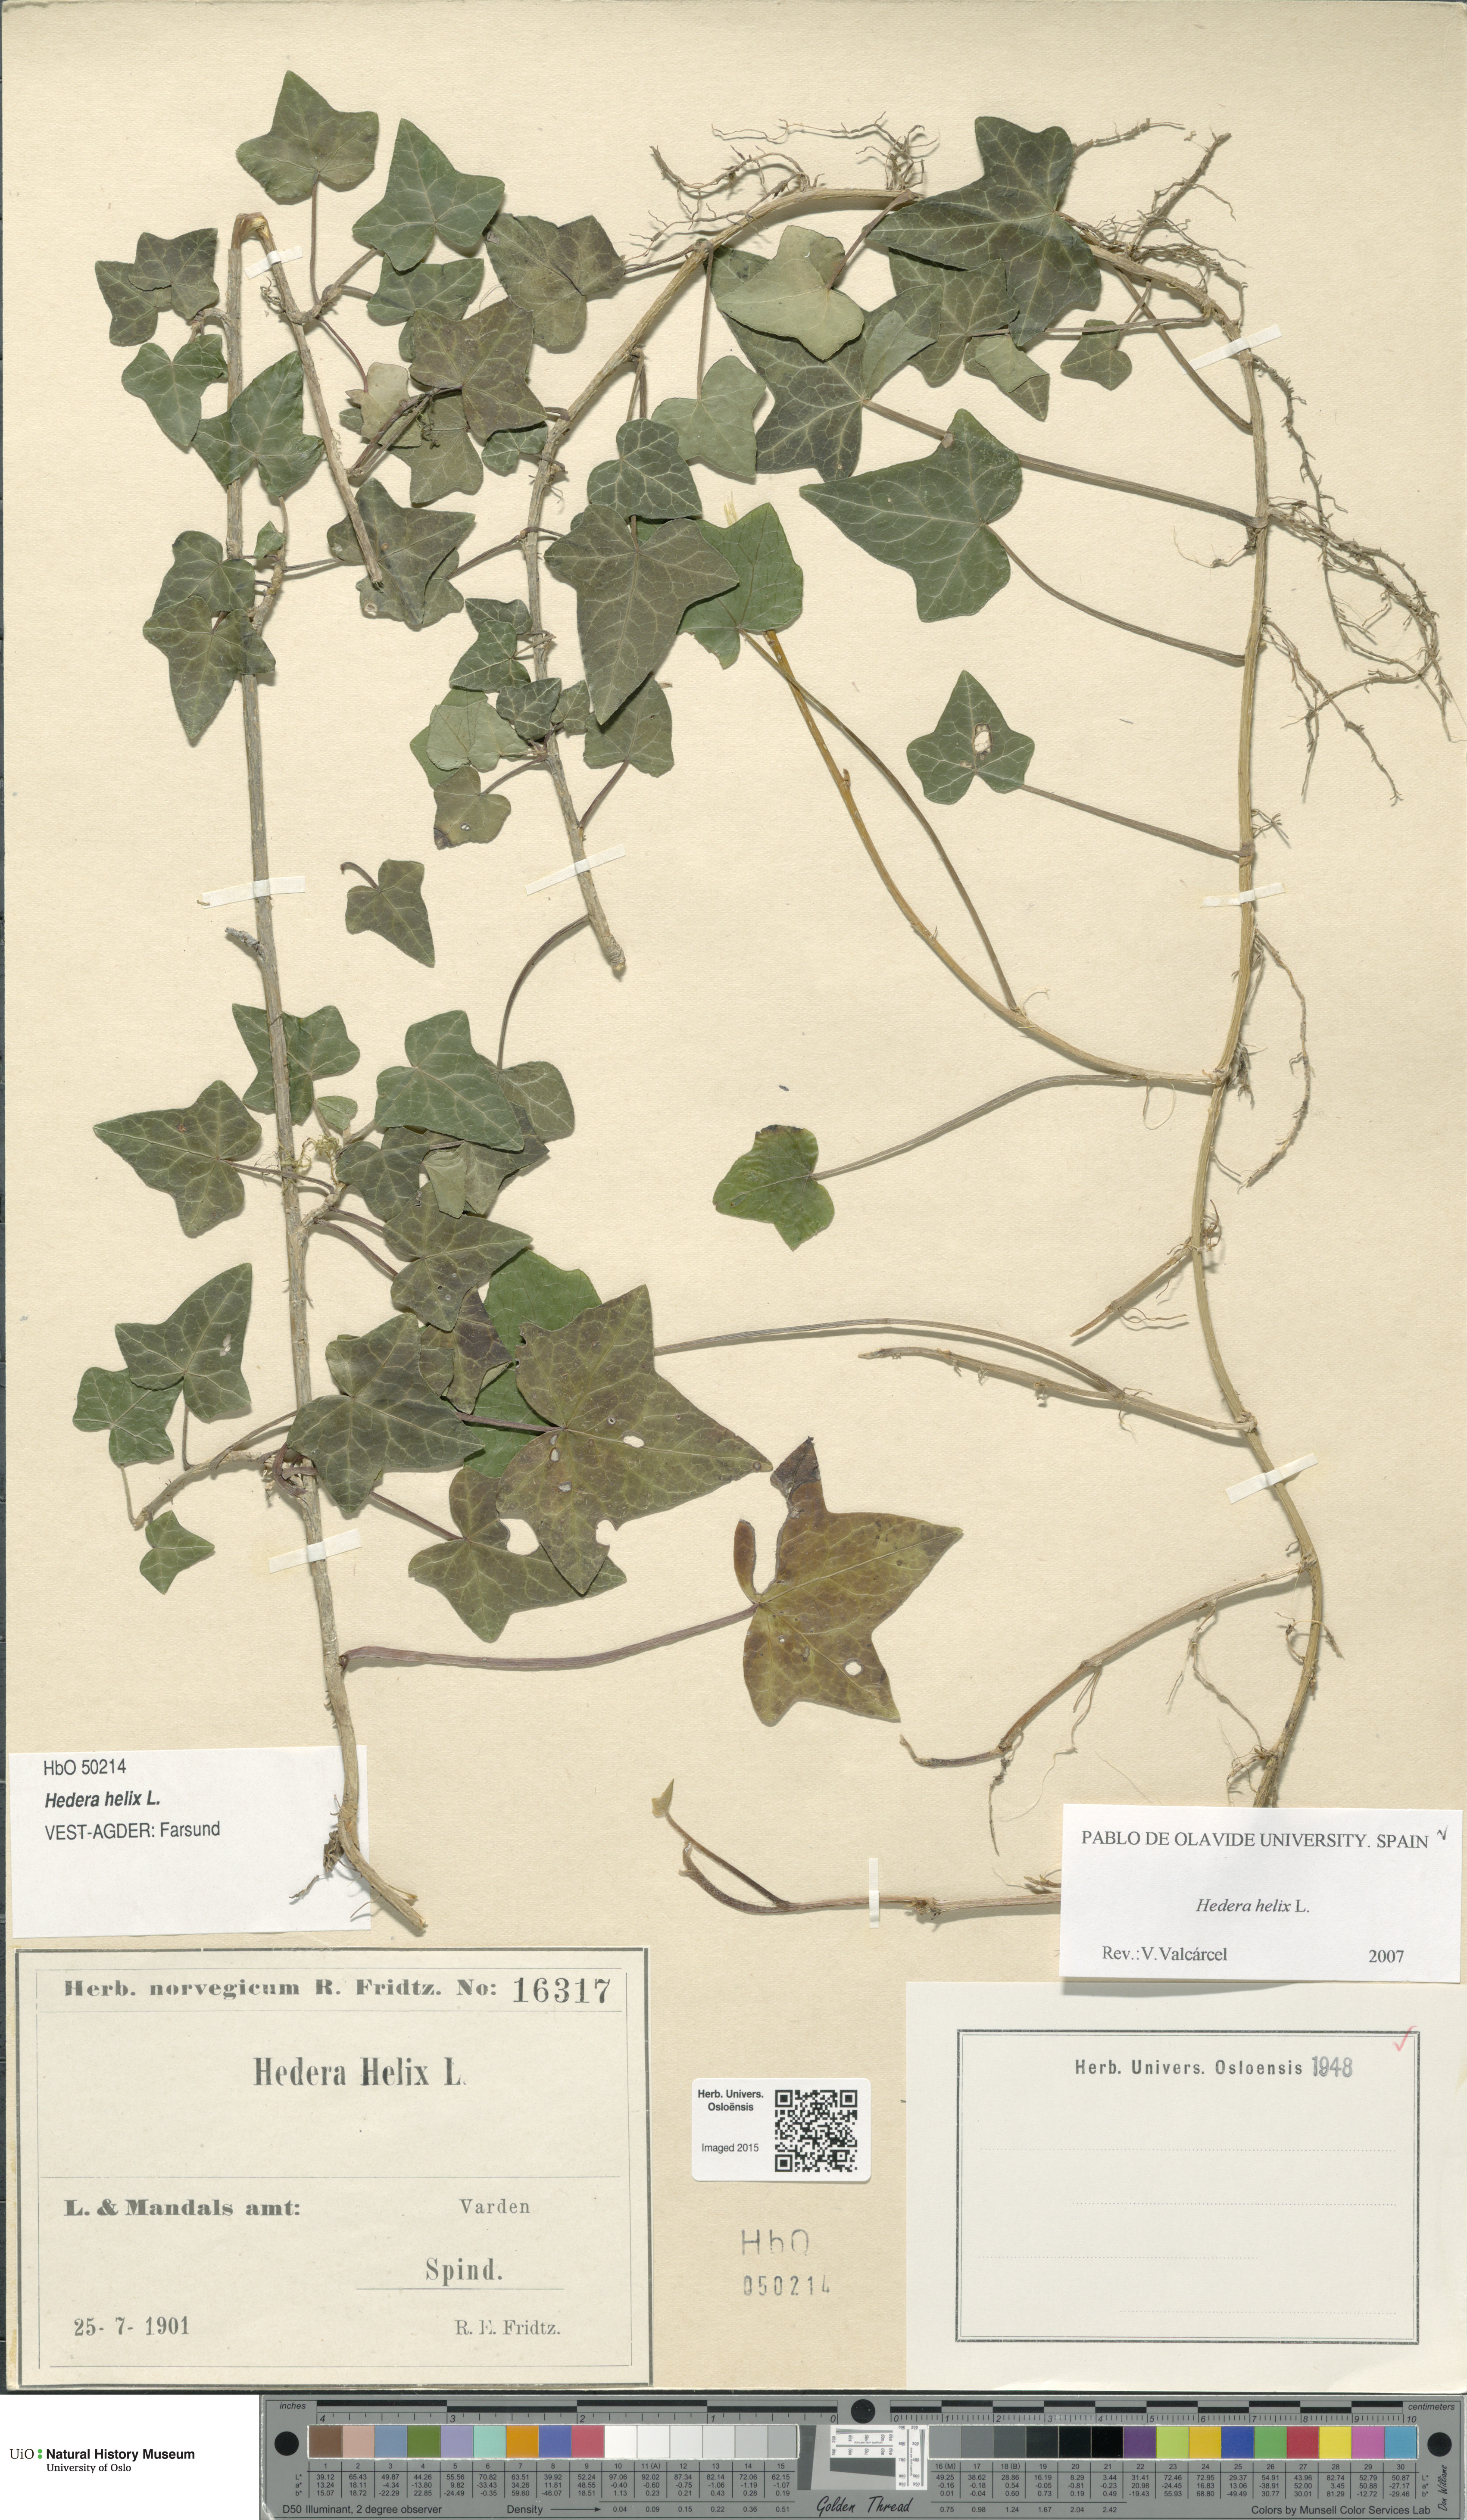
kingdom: Plantae
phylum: Tracheophyta
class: Magnoliopsida
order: Apiales
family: Araliaceae
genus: Hedera
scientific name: Hedera helix
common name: Ivy
